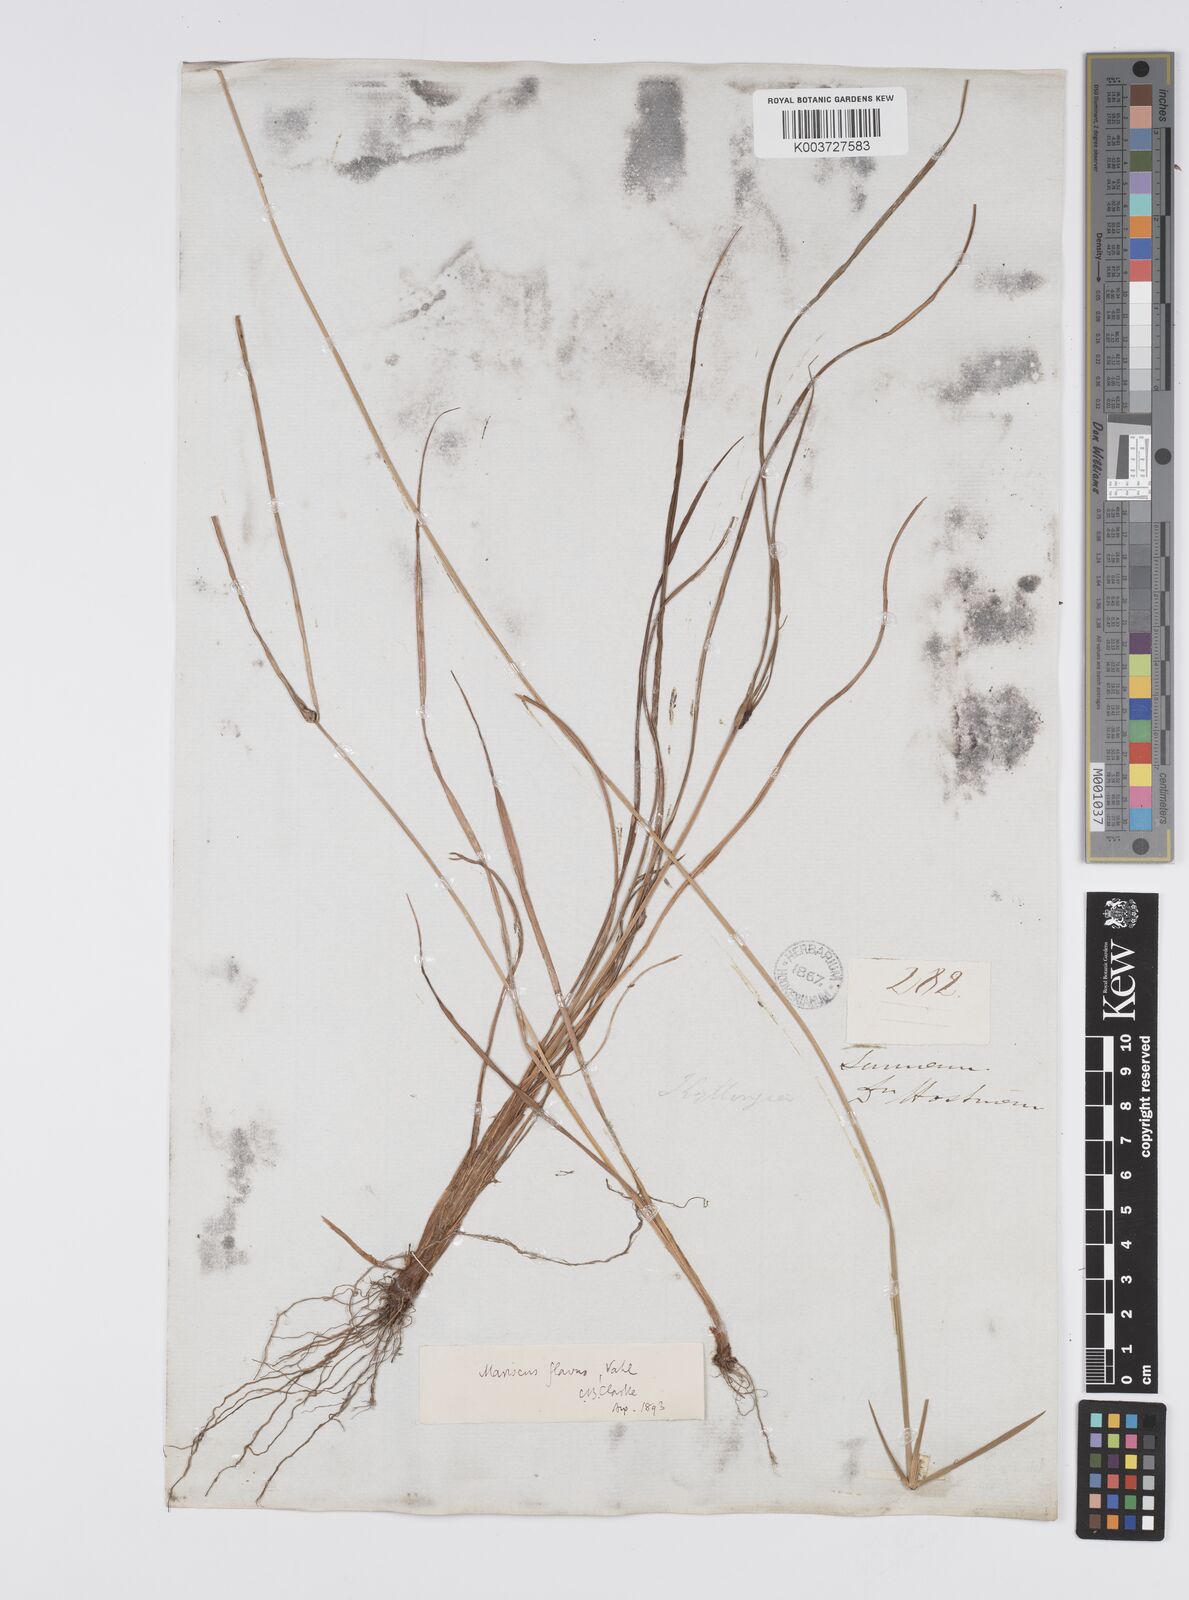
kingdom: Plantae
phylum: Tracheophyta
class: Liliopsida
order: Poales
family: Cyperaceae
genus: Cyperus
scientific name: Cyperus aggregatus
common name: Inflatedscale flatsedge
